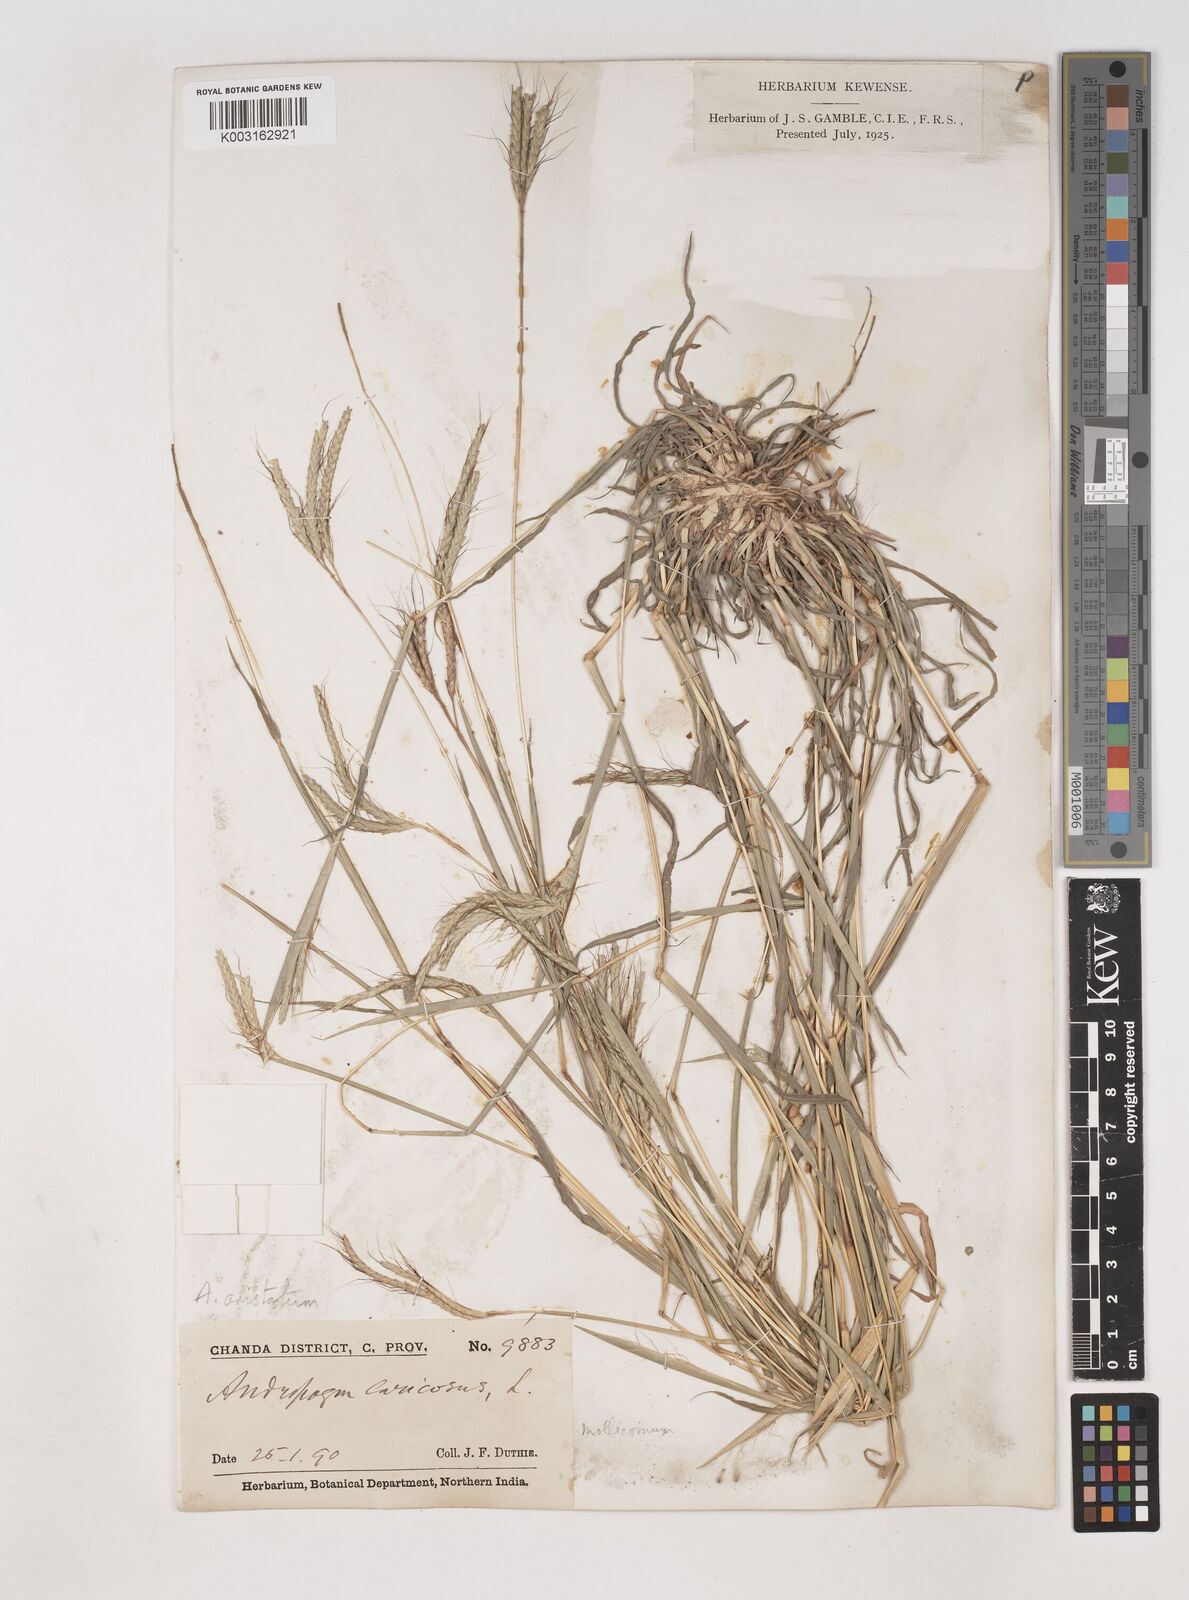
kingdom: Plantae
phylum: Tracheophyta
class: Liliopsida
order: Poales
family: Poaceae
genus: Dichanthium
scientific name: Dichanthium aristatum
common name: Angleton bluestem
